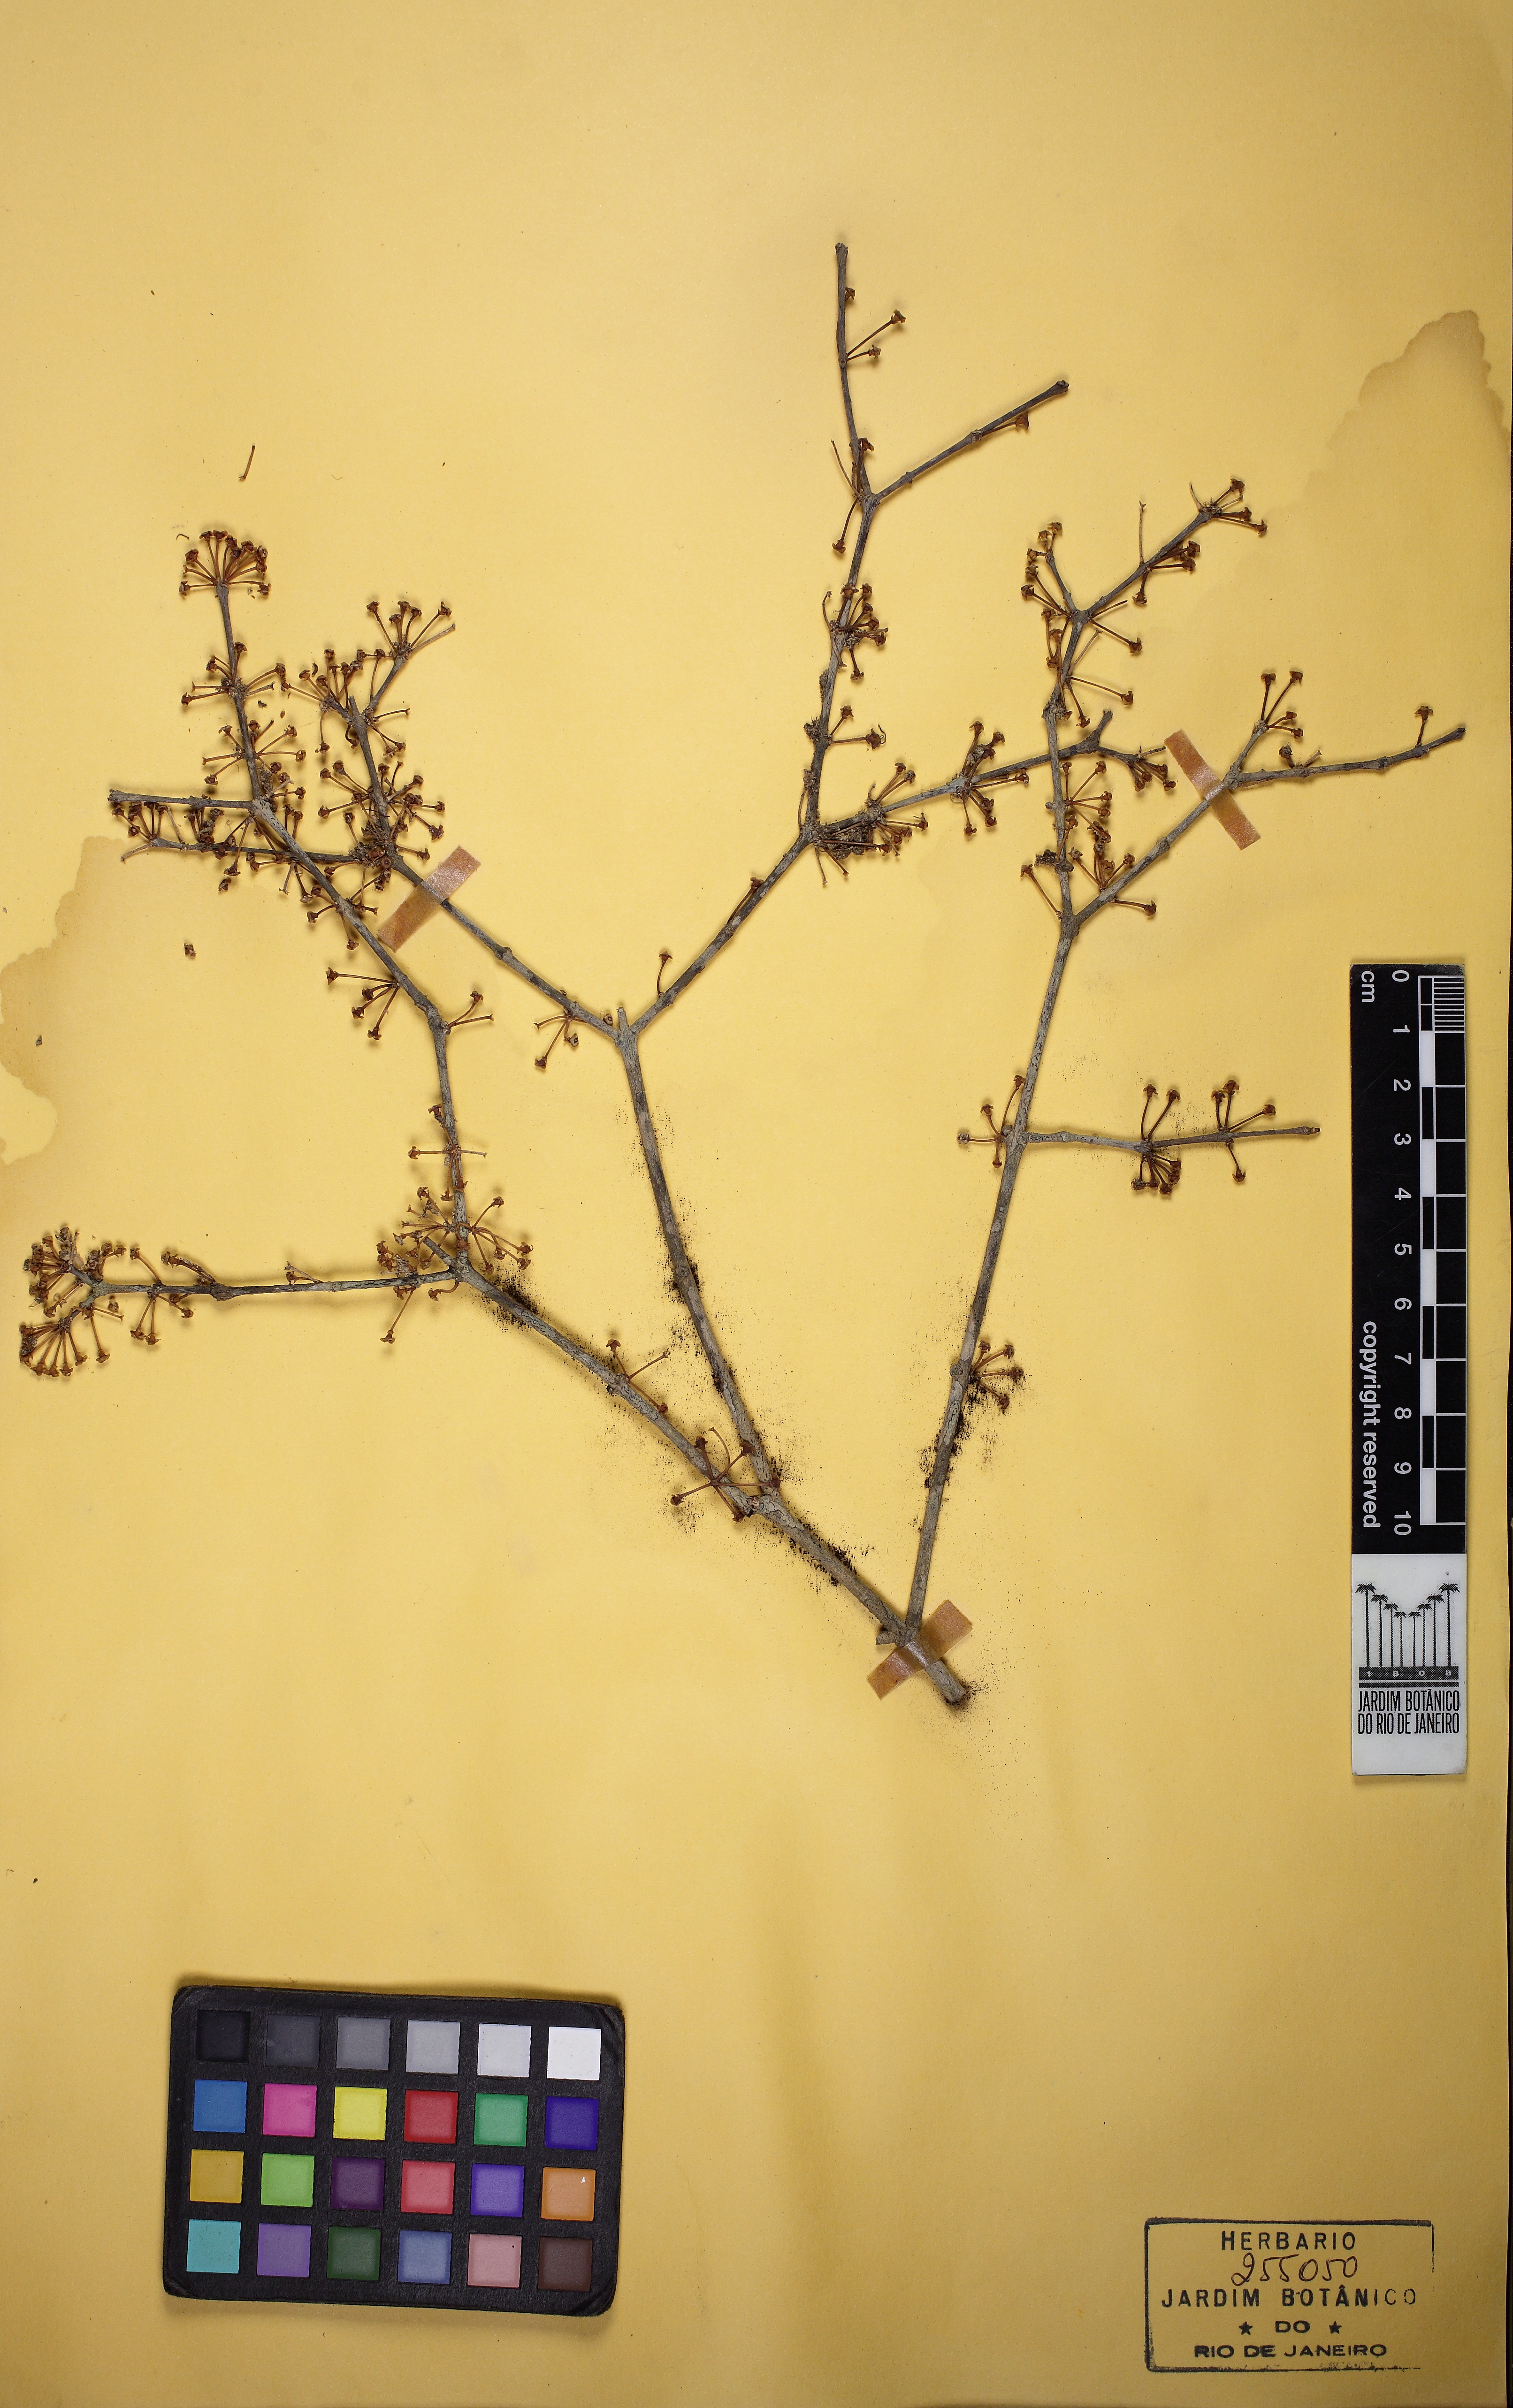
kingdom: Plantae
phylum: Tracheophyta
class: Magnoliopsida
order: Myrtales
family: Myrtaceae
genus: Eugenia
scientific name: Eugenia flavescens
